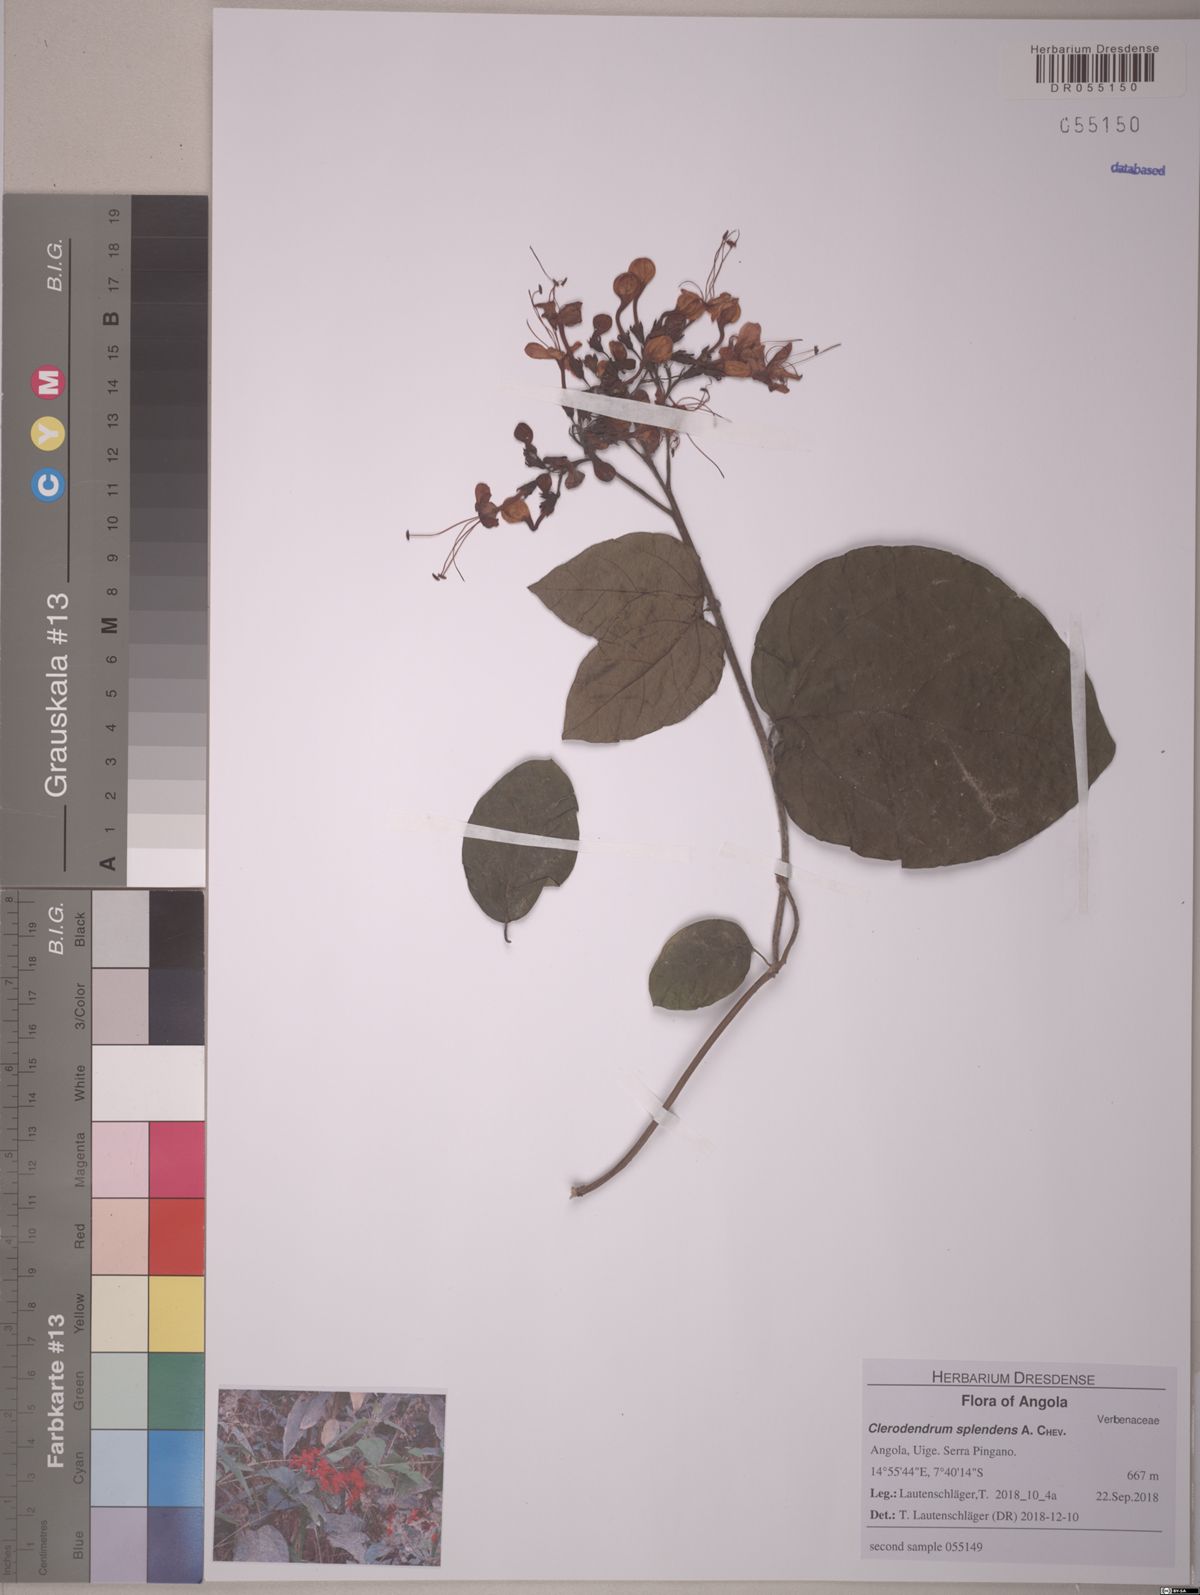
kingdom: Plantae
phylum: Tracheophyta
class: Magnoliopsida
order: Lamiales
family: Lamiaceae
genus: Clerodendrum
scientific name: Clerodendrum splendens
